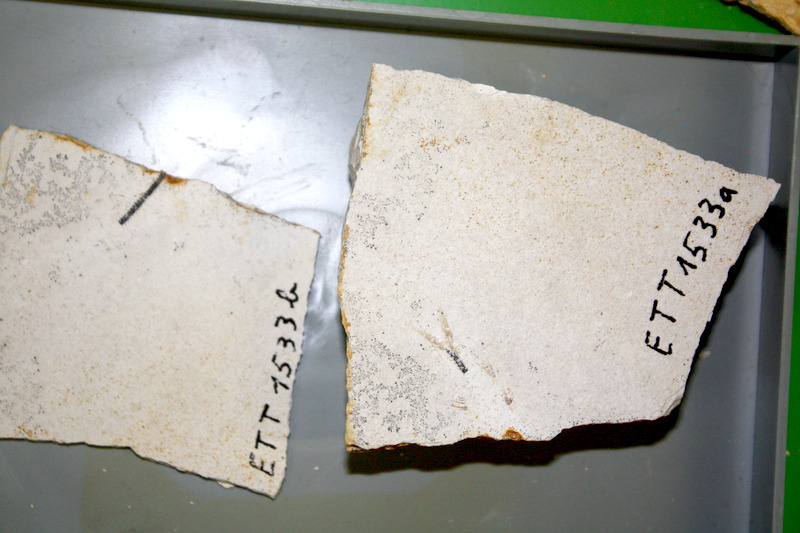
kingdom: Animalia
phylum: Chordata
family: Ascalaboidae
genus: Ebertichthys
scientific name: Ebertichthys ettlingensis
